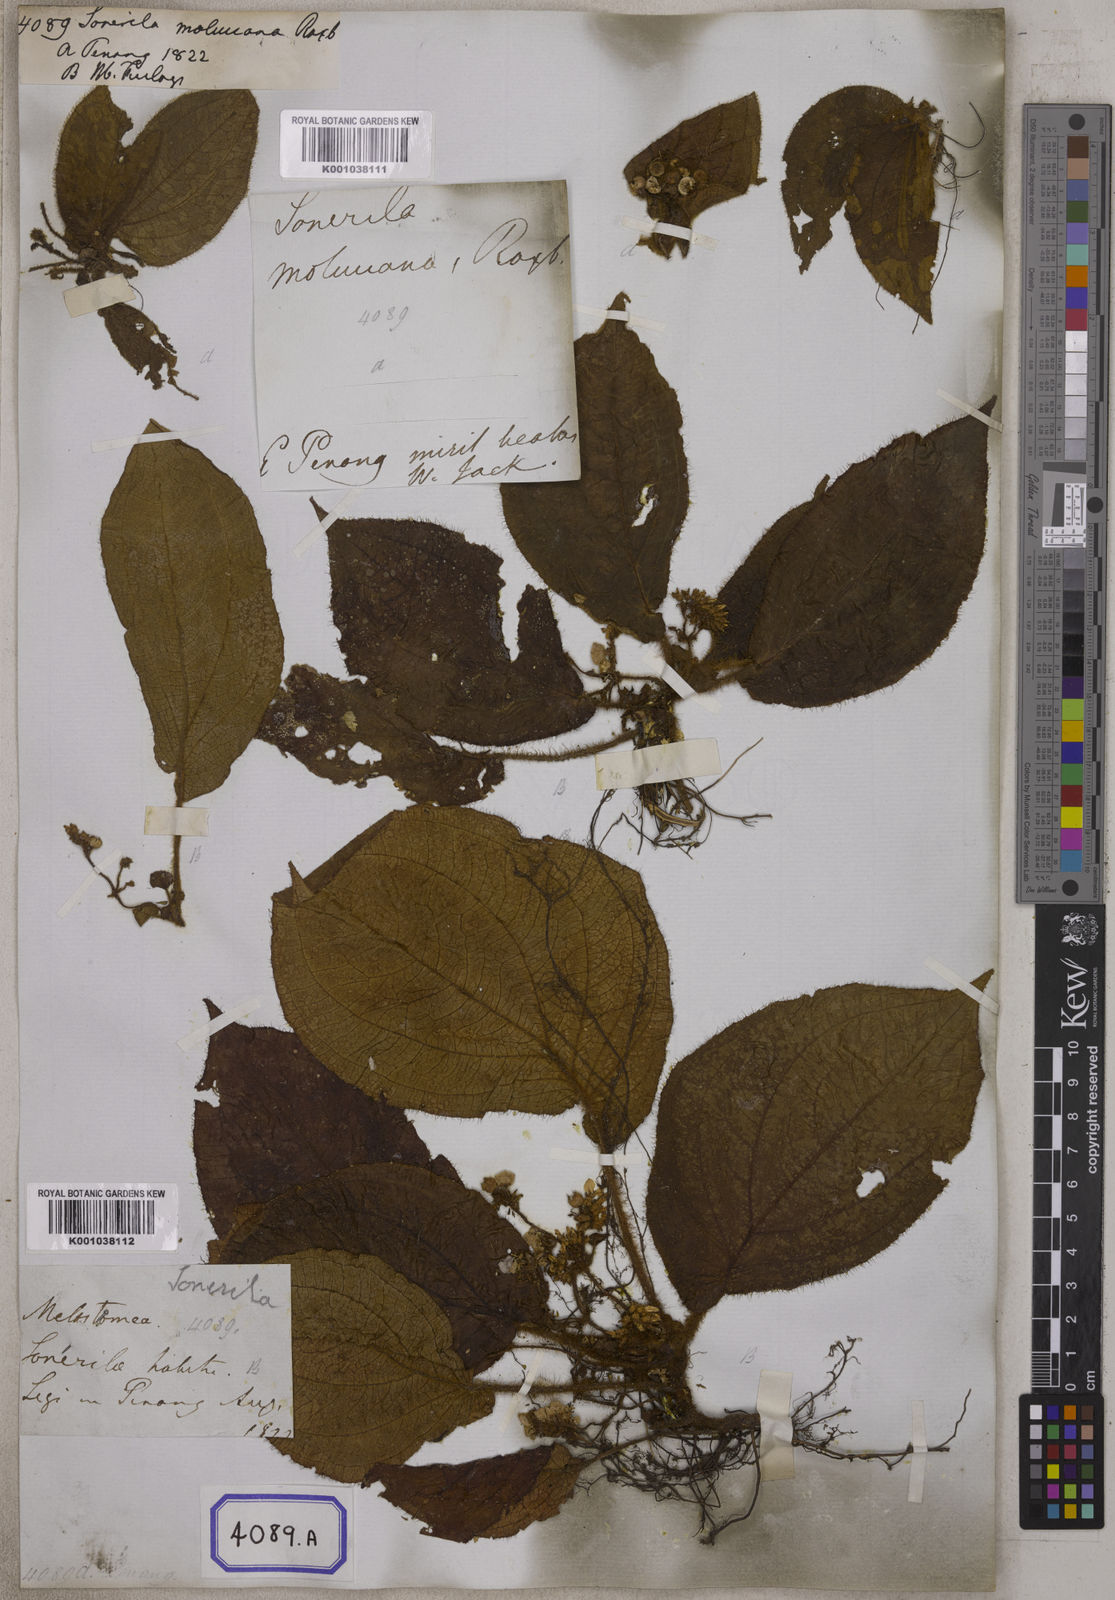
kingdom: Plantae
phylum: Tracheophyta
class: Magnoliopsida
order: Myrtales
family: Melastomataceae
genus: Sonerila
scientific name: Sonerila moluccana
